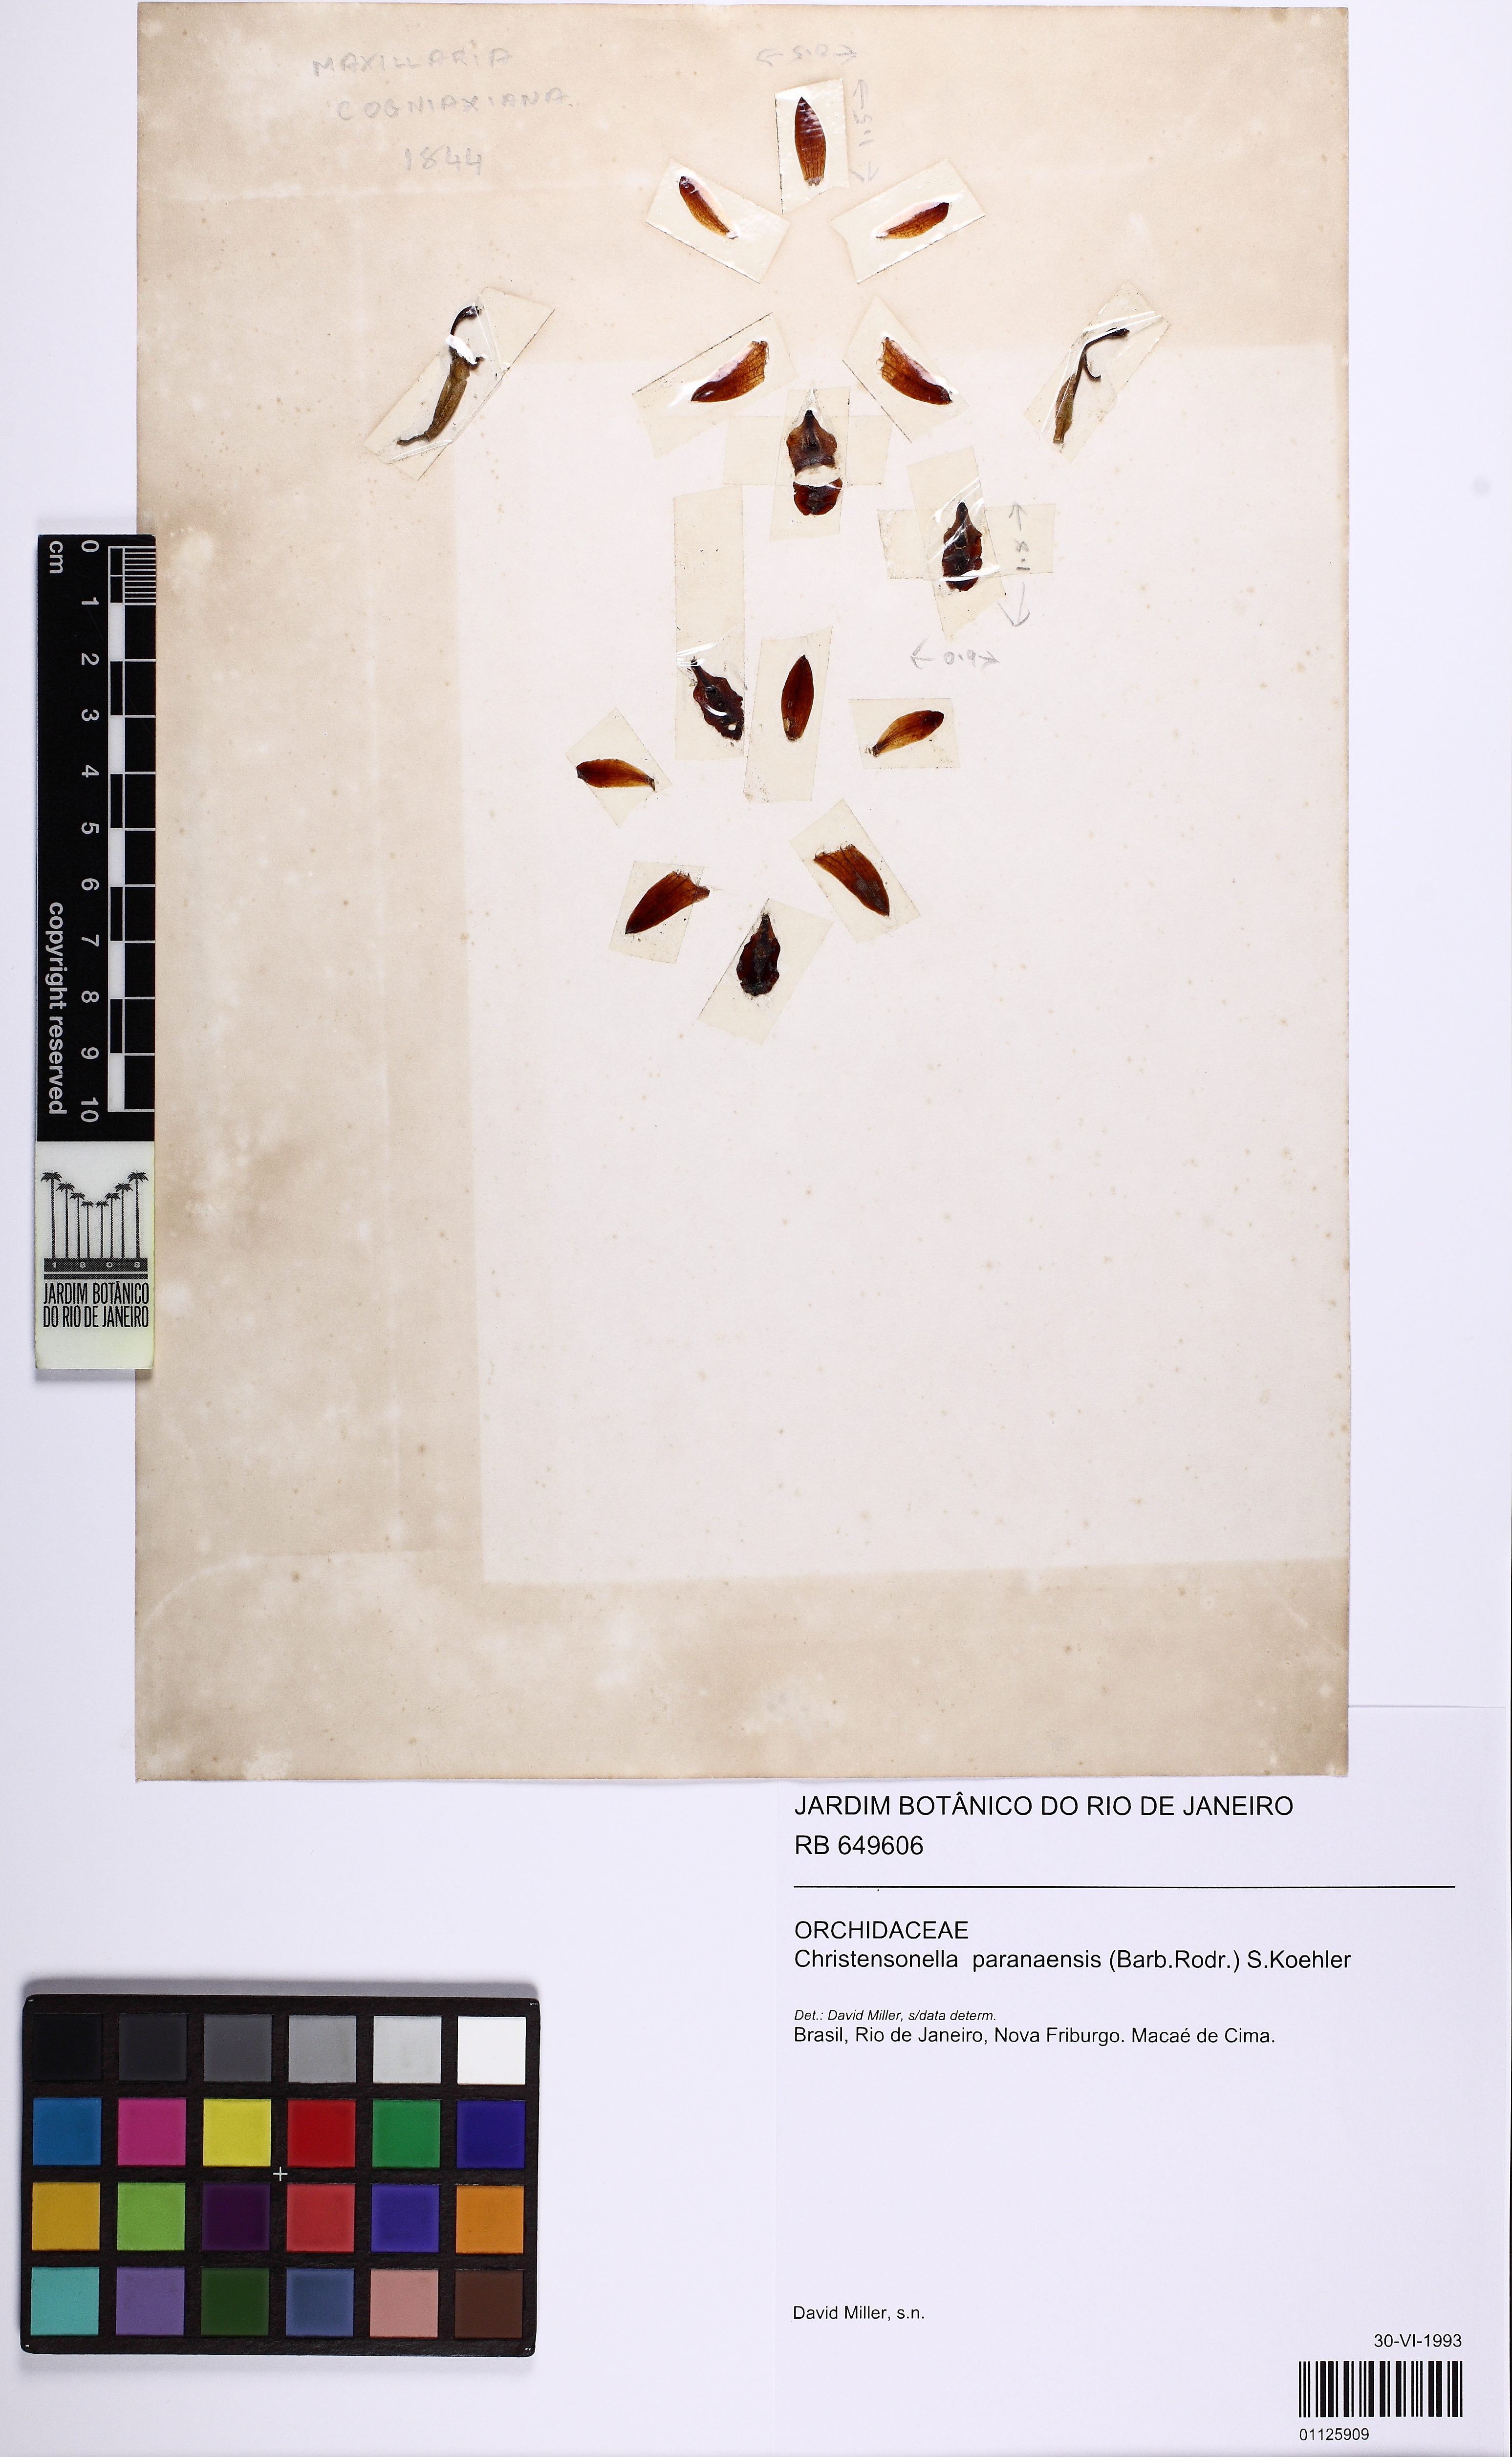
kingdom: Plantae
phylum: Tracheophyta
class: Liliopsida
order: Asparagales
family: Orchidaceae
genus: Maxillaria
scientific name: Maxillaria Christensonella paranaensis
